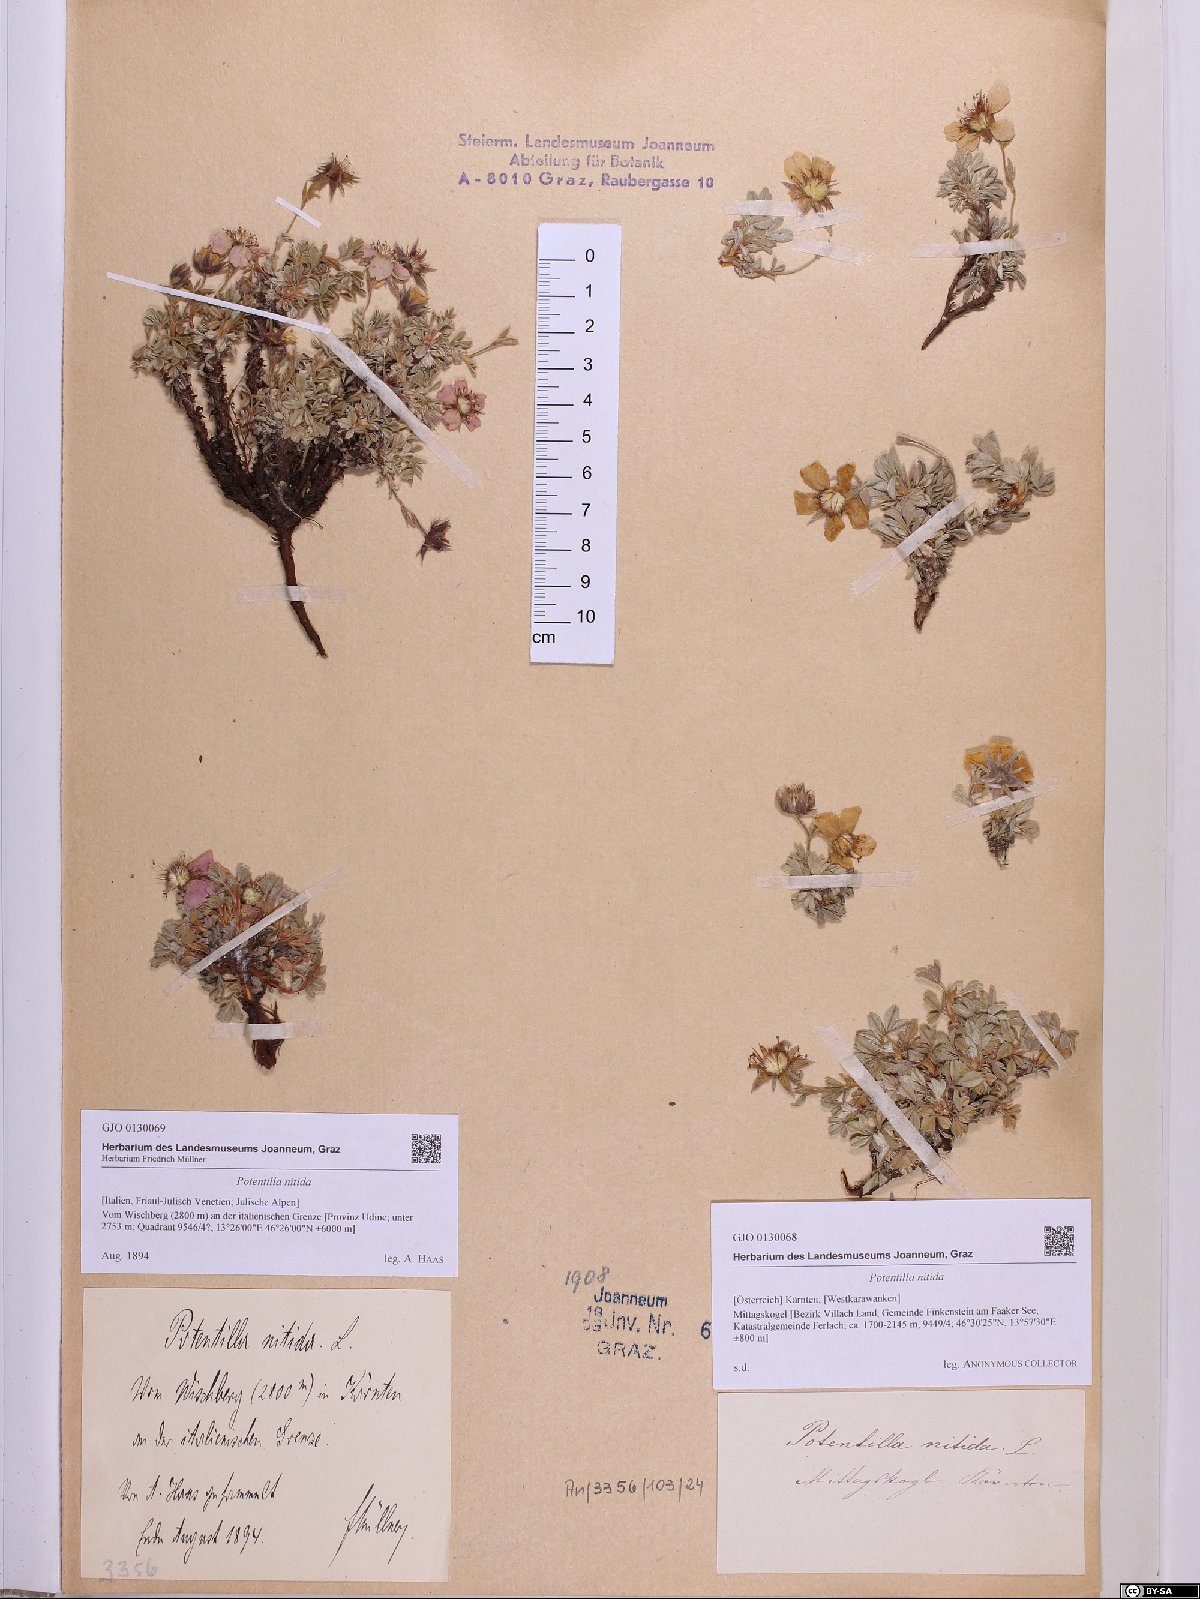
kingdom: Plantae
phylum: Tracheophyta
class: Magnoliopsida
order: Rosales
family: Rosaceae
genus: Potentilla
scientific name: Potentilla nitida
